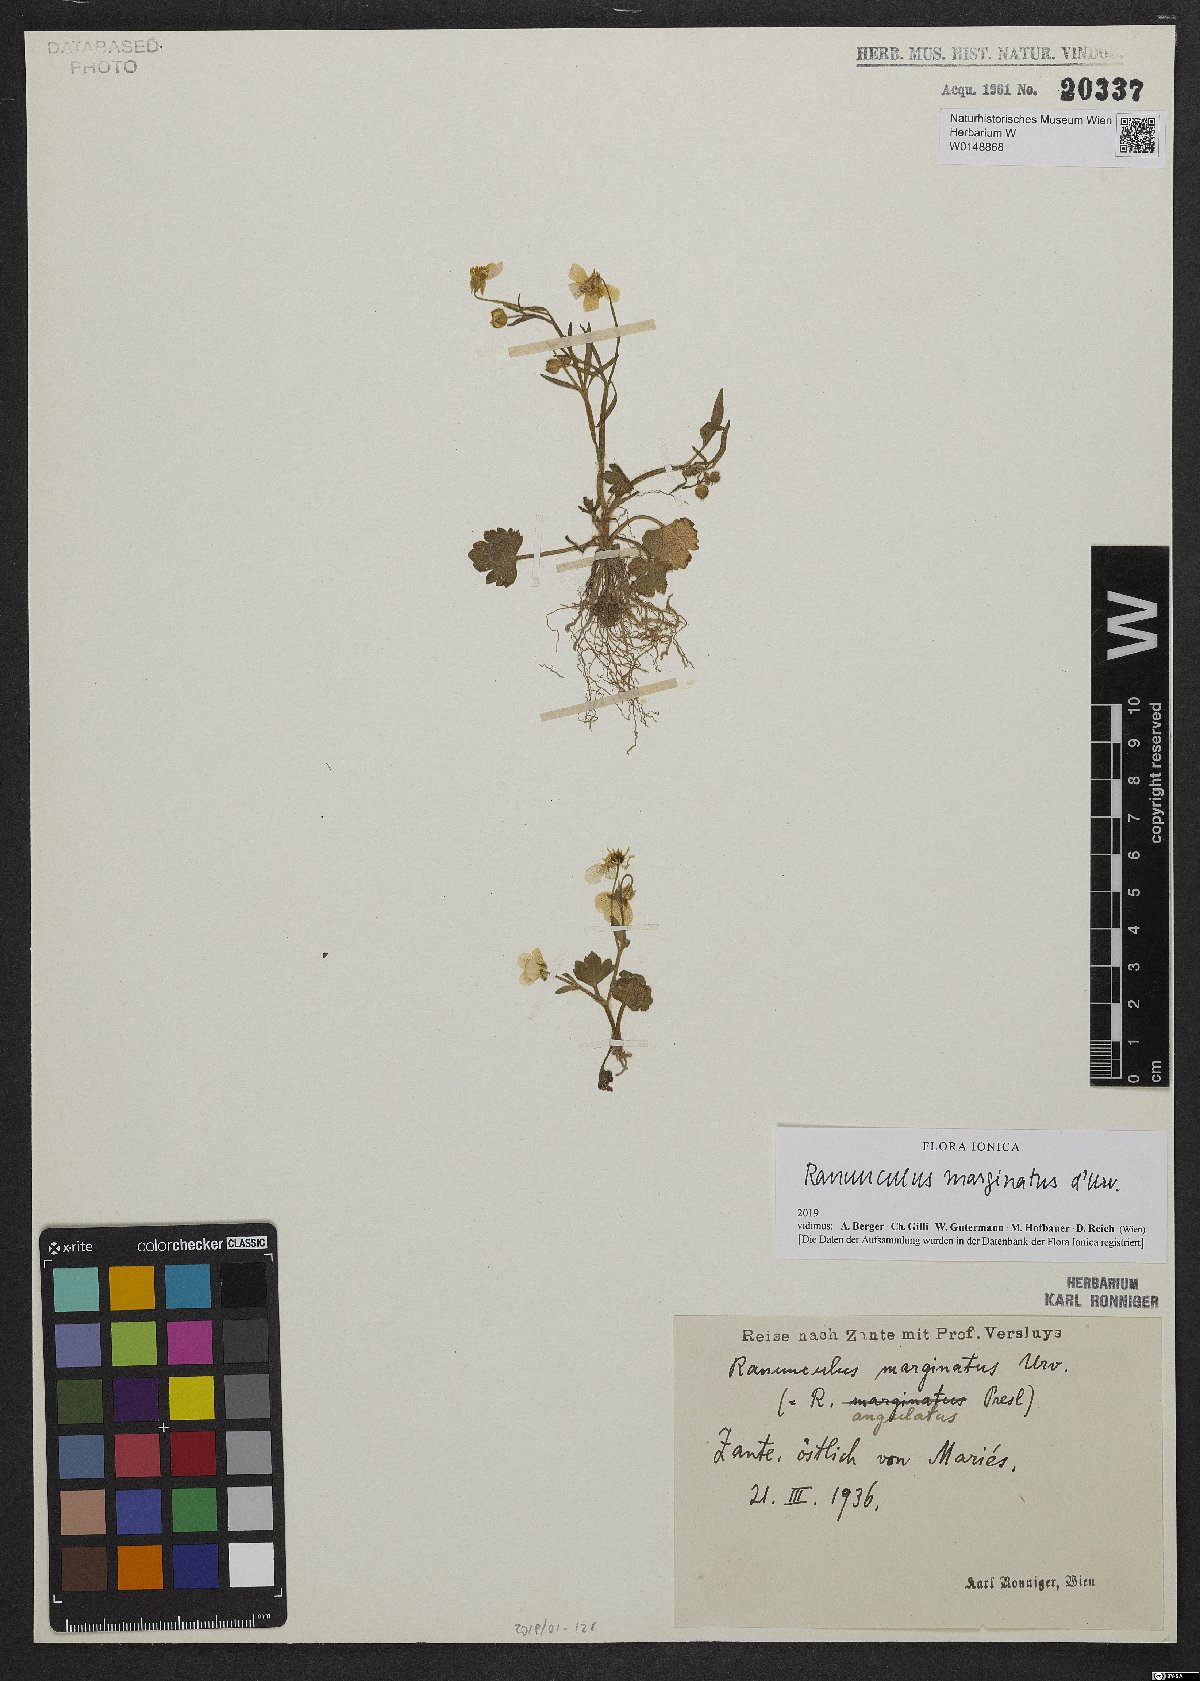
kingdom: Plantae
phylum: Tracheophyta
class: Magnoliopsida
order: Ranunculales
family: Ranunculaceae
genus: Ranunculus
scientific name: Ranunculus marginatus
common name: St. martin's buttercup
